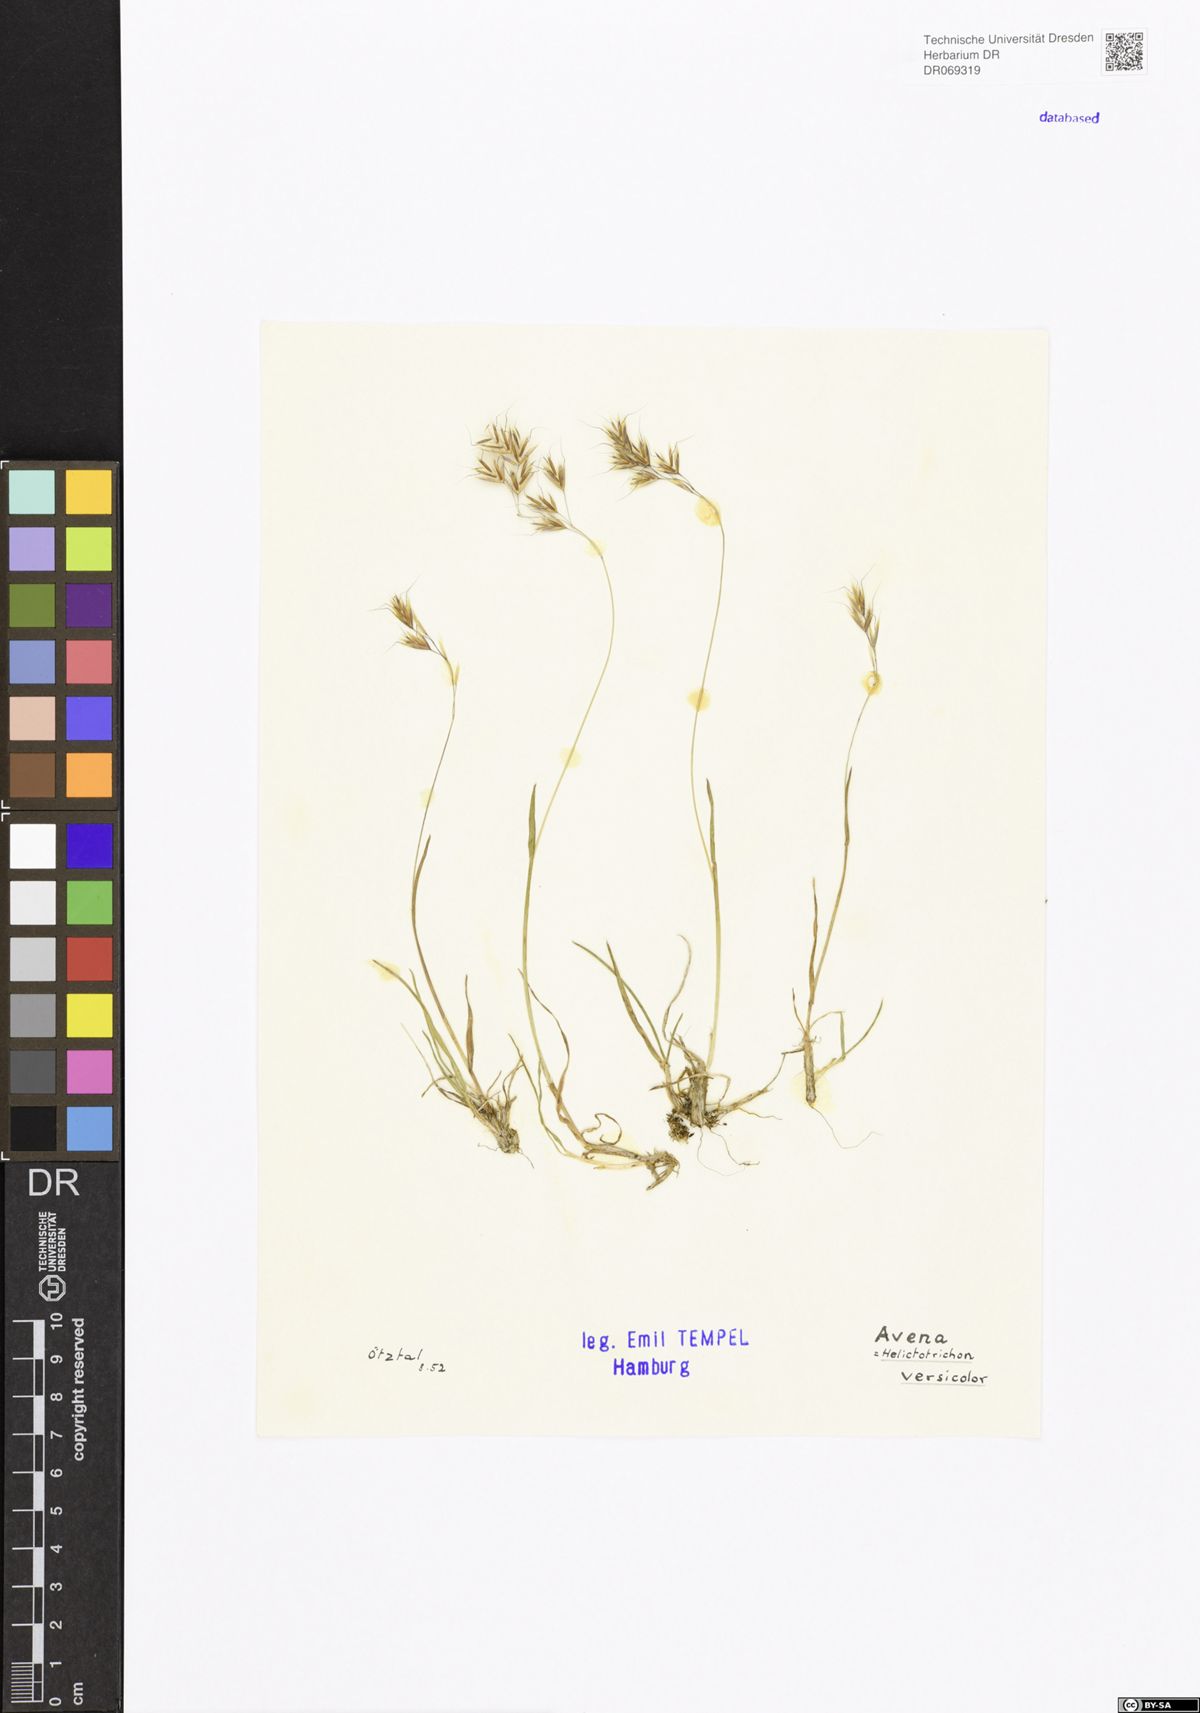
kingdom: Plantae
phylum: Tracheophyta
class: Liliopsida
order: Poales
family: Poaceae
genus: Helictochloa
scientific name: Helictochloa versicolor
